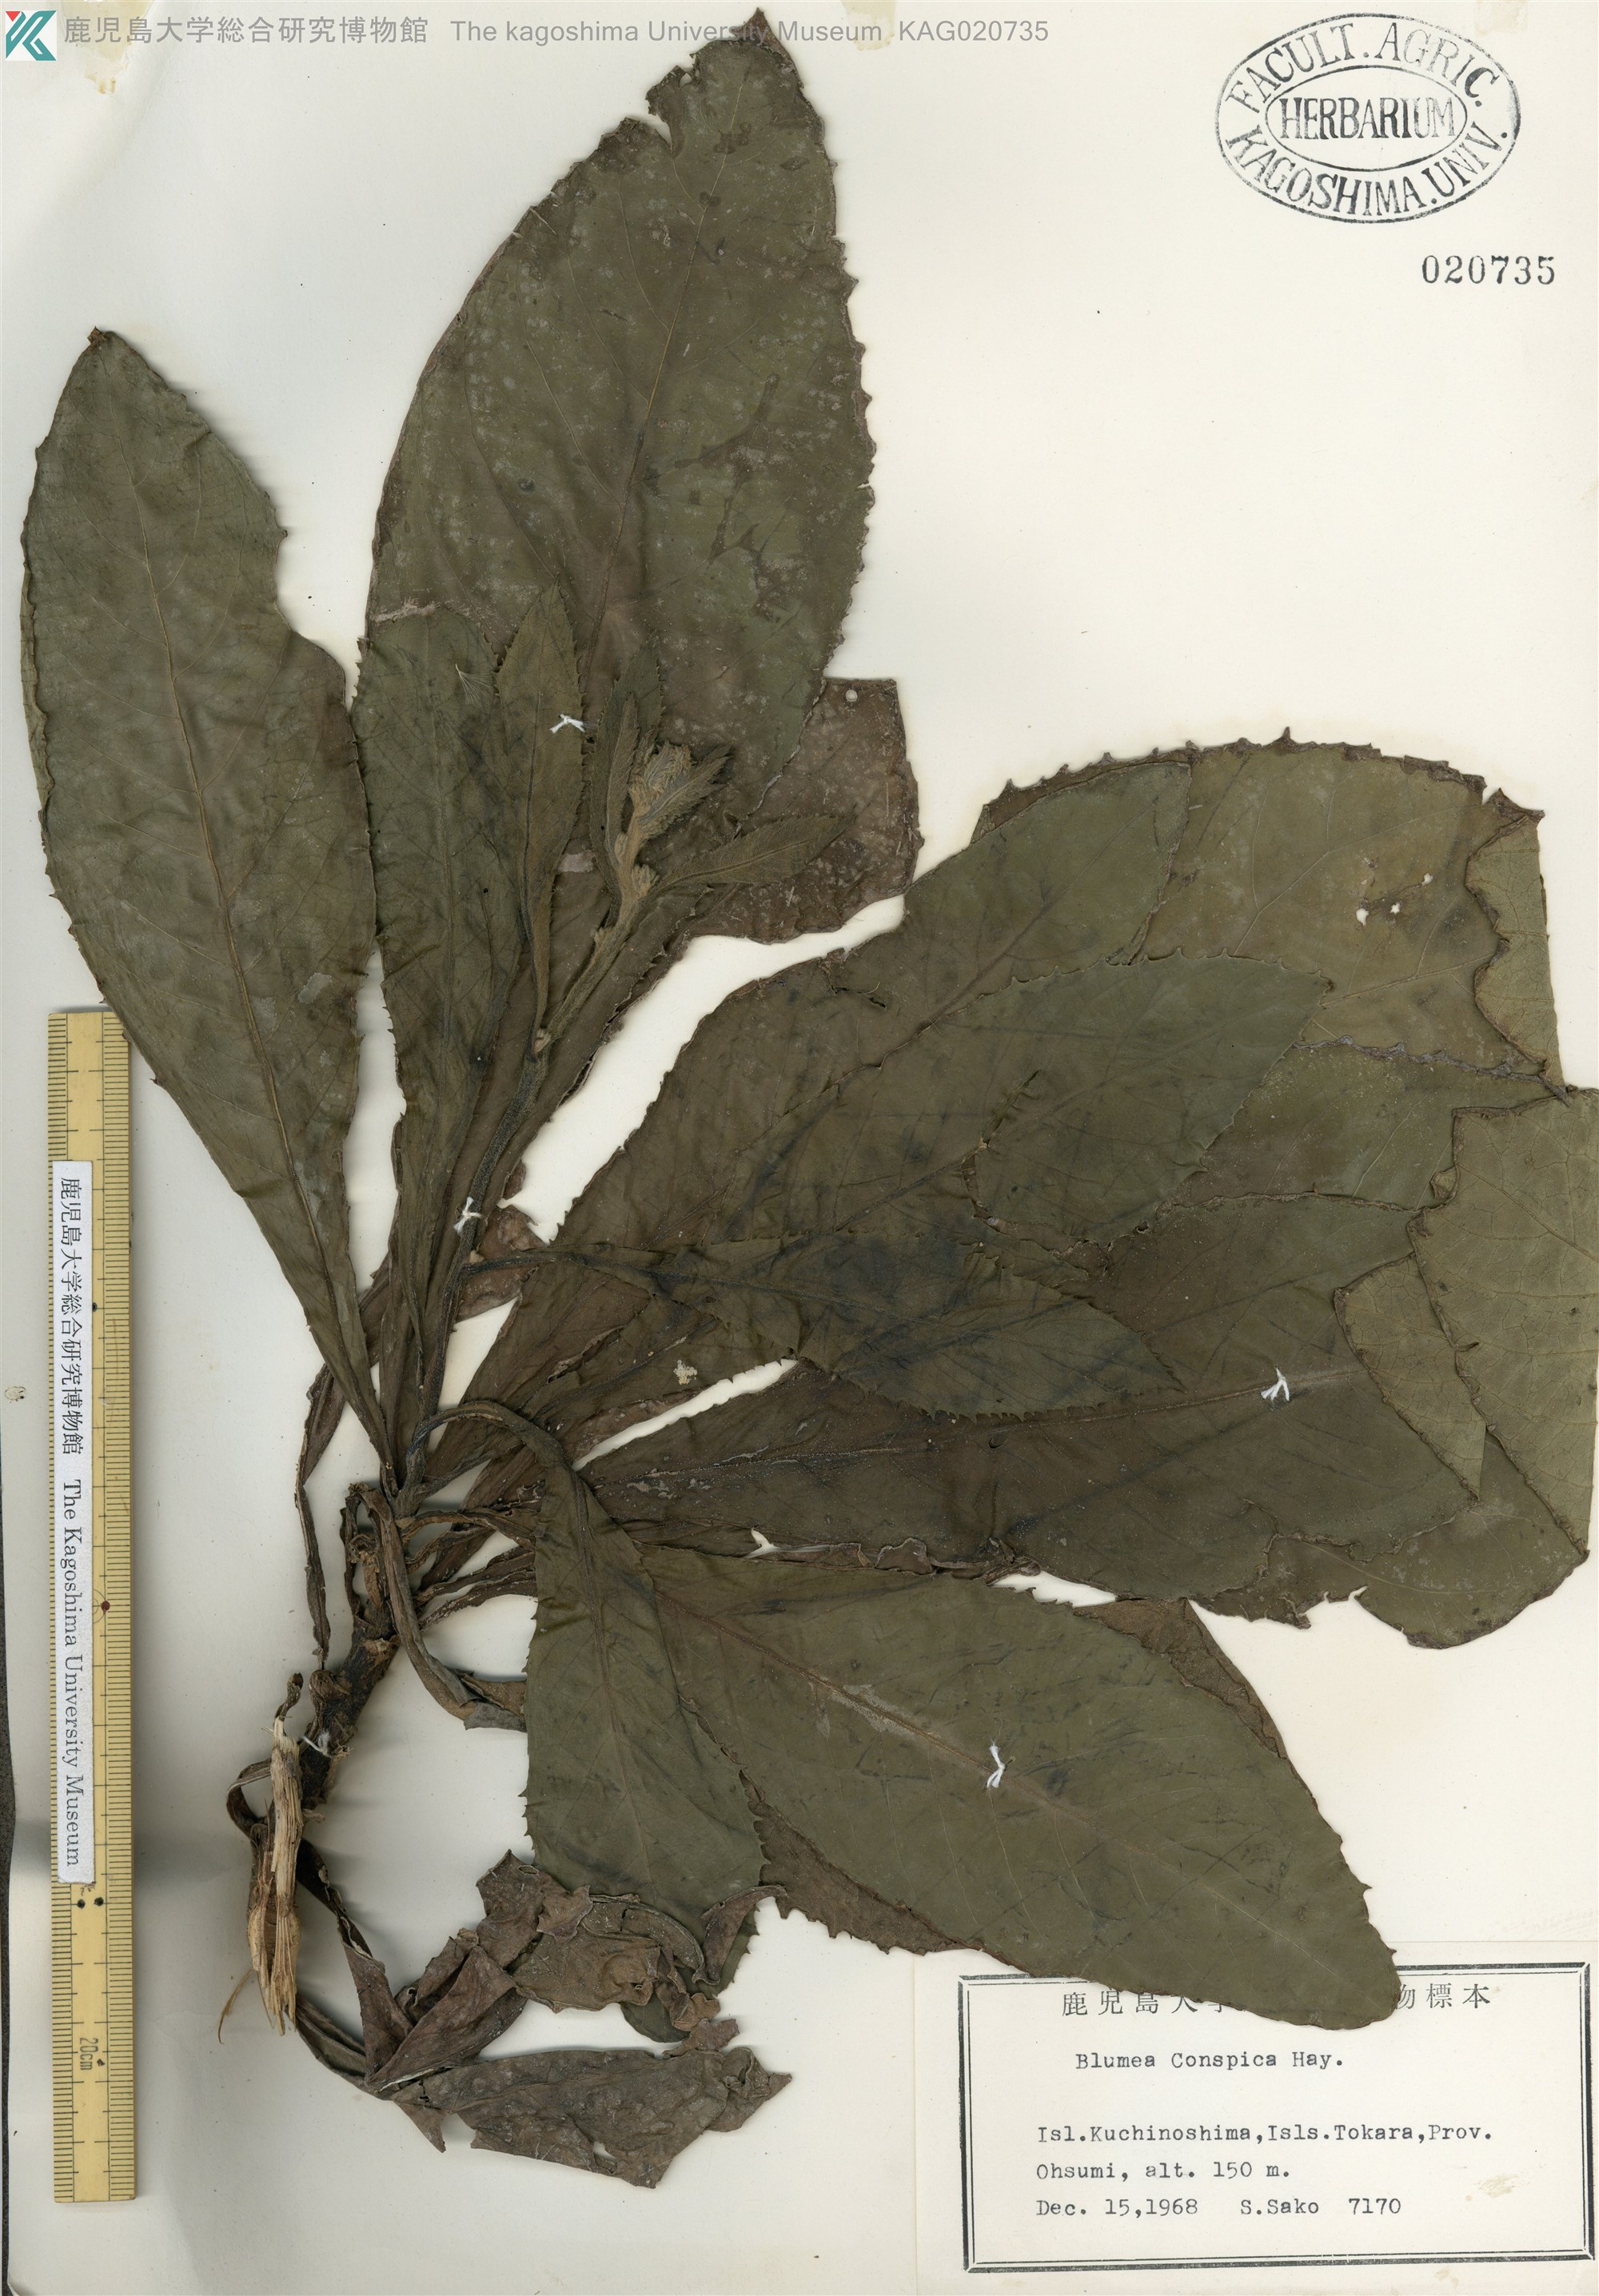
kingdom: Plantae
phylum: Tracheophyta
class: Magnoliopsida
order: Asterales
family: Asteraceae
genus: Blumea
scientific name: Blumea conspicua
